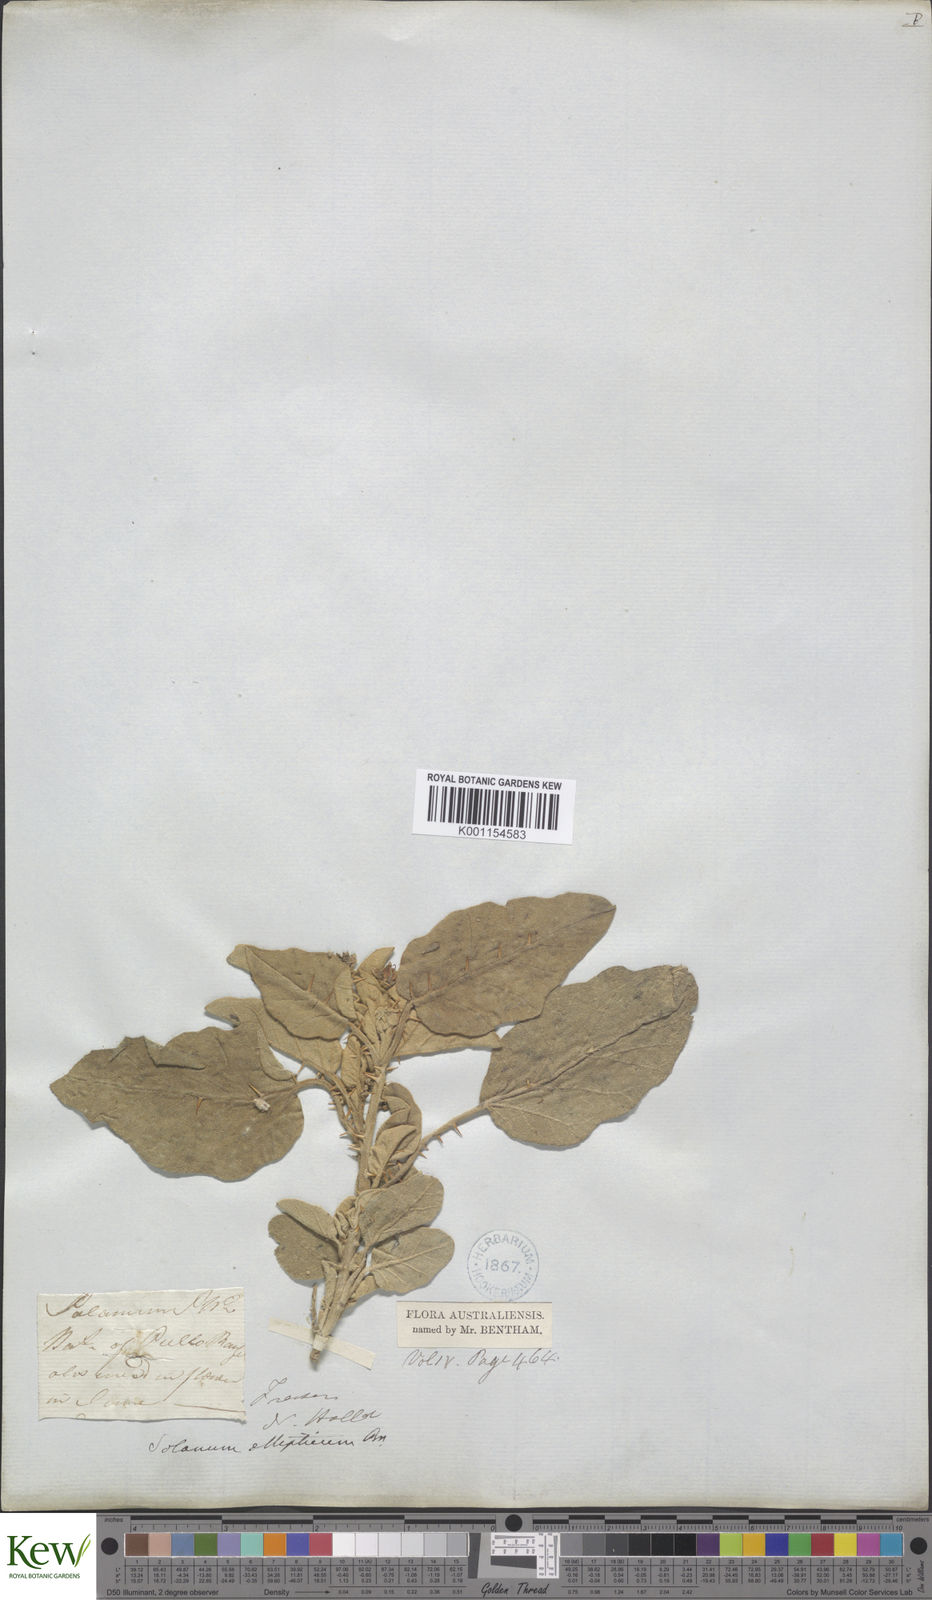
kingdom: Plantae
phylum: Tracheophyta
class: Magnoliopsida
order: Solanales
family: Solanaceae
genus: Solanum
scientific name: Solanum ellipticum
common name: Potato-bush
